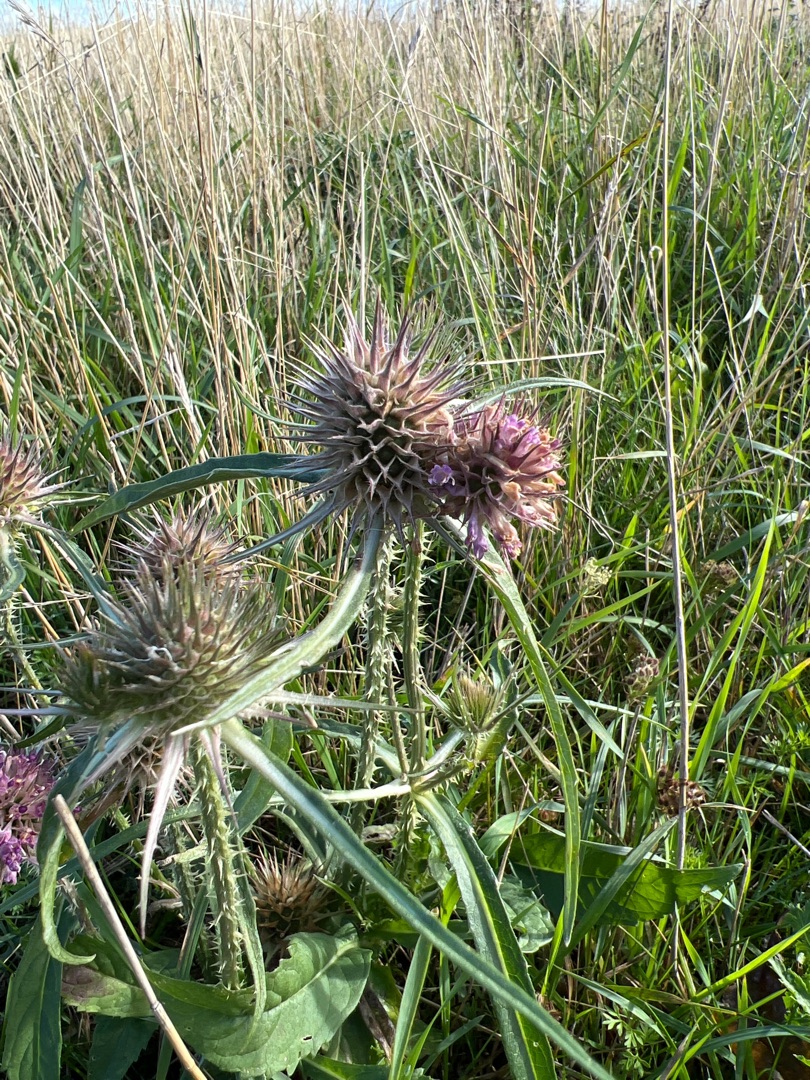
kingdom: Plantae
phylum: Tracheophyta
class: Magnoliopsida
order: Dipsacales
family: Caprifoliaceae
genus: Dipsacus
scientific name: Dipsacus fullonum
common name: Gærde-kartebolle
